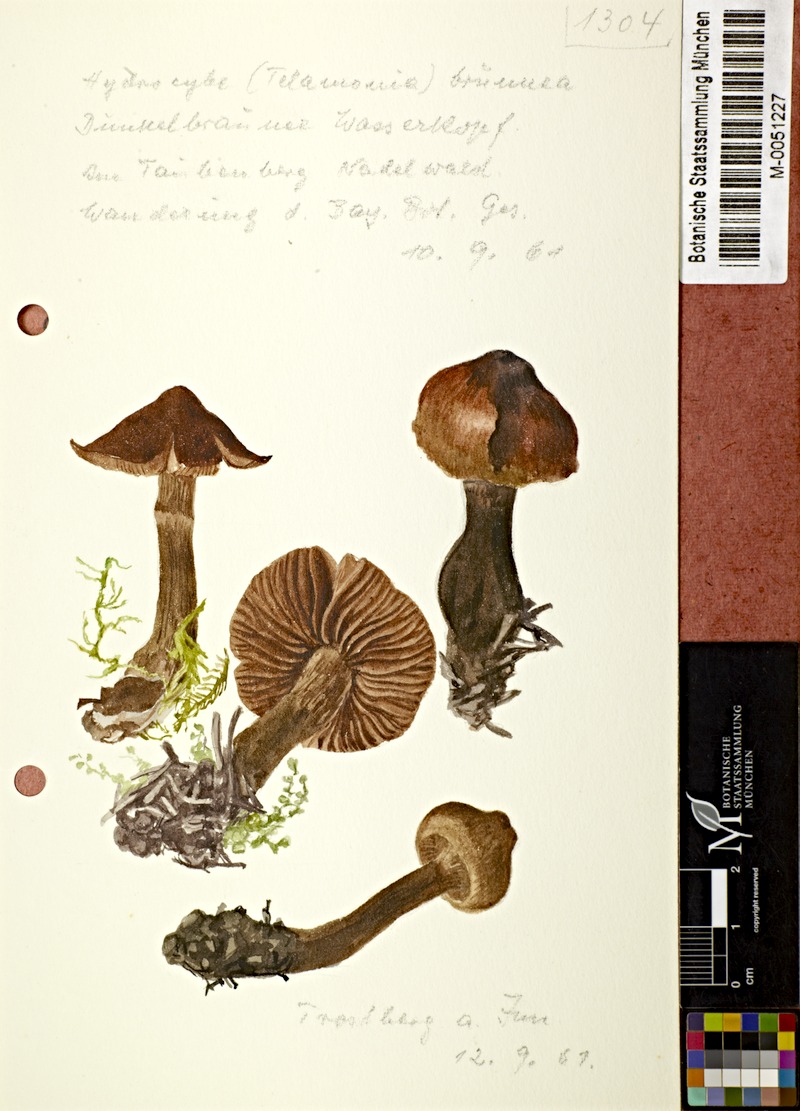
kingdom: Fungi
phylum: Basidiomycota
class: Agaricomycetes
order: Agaricales
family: Cortinariaceae
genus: Cortinarius
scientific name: Cortinarius brunneus
